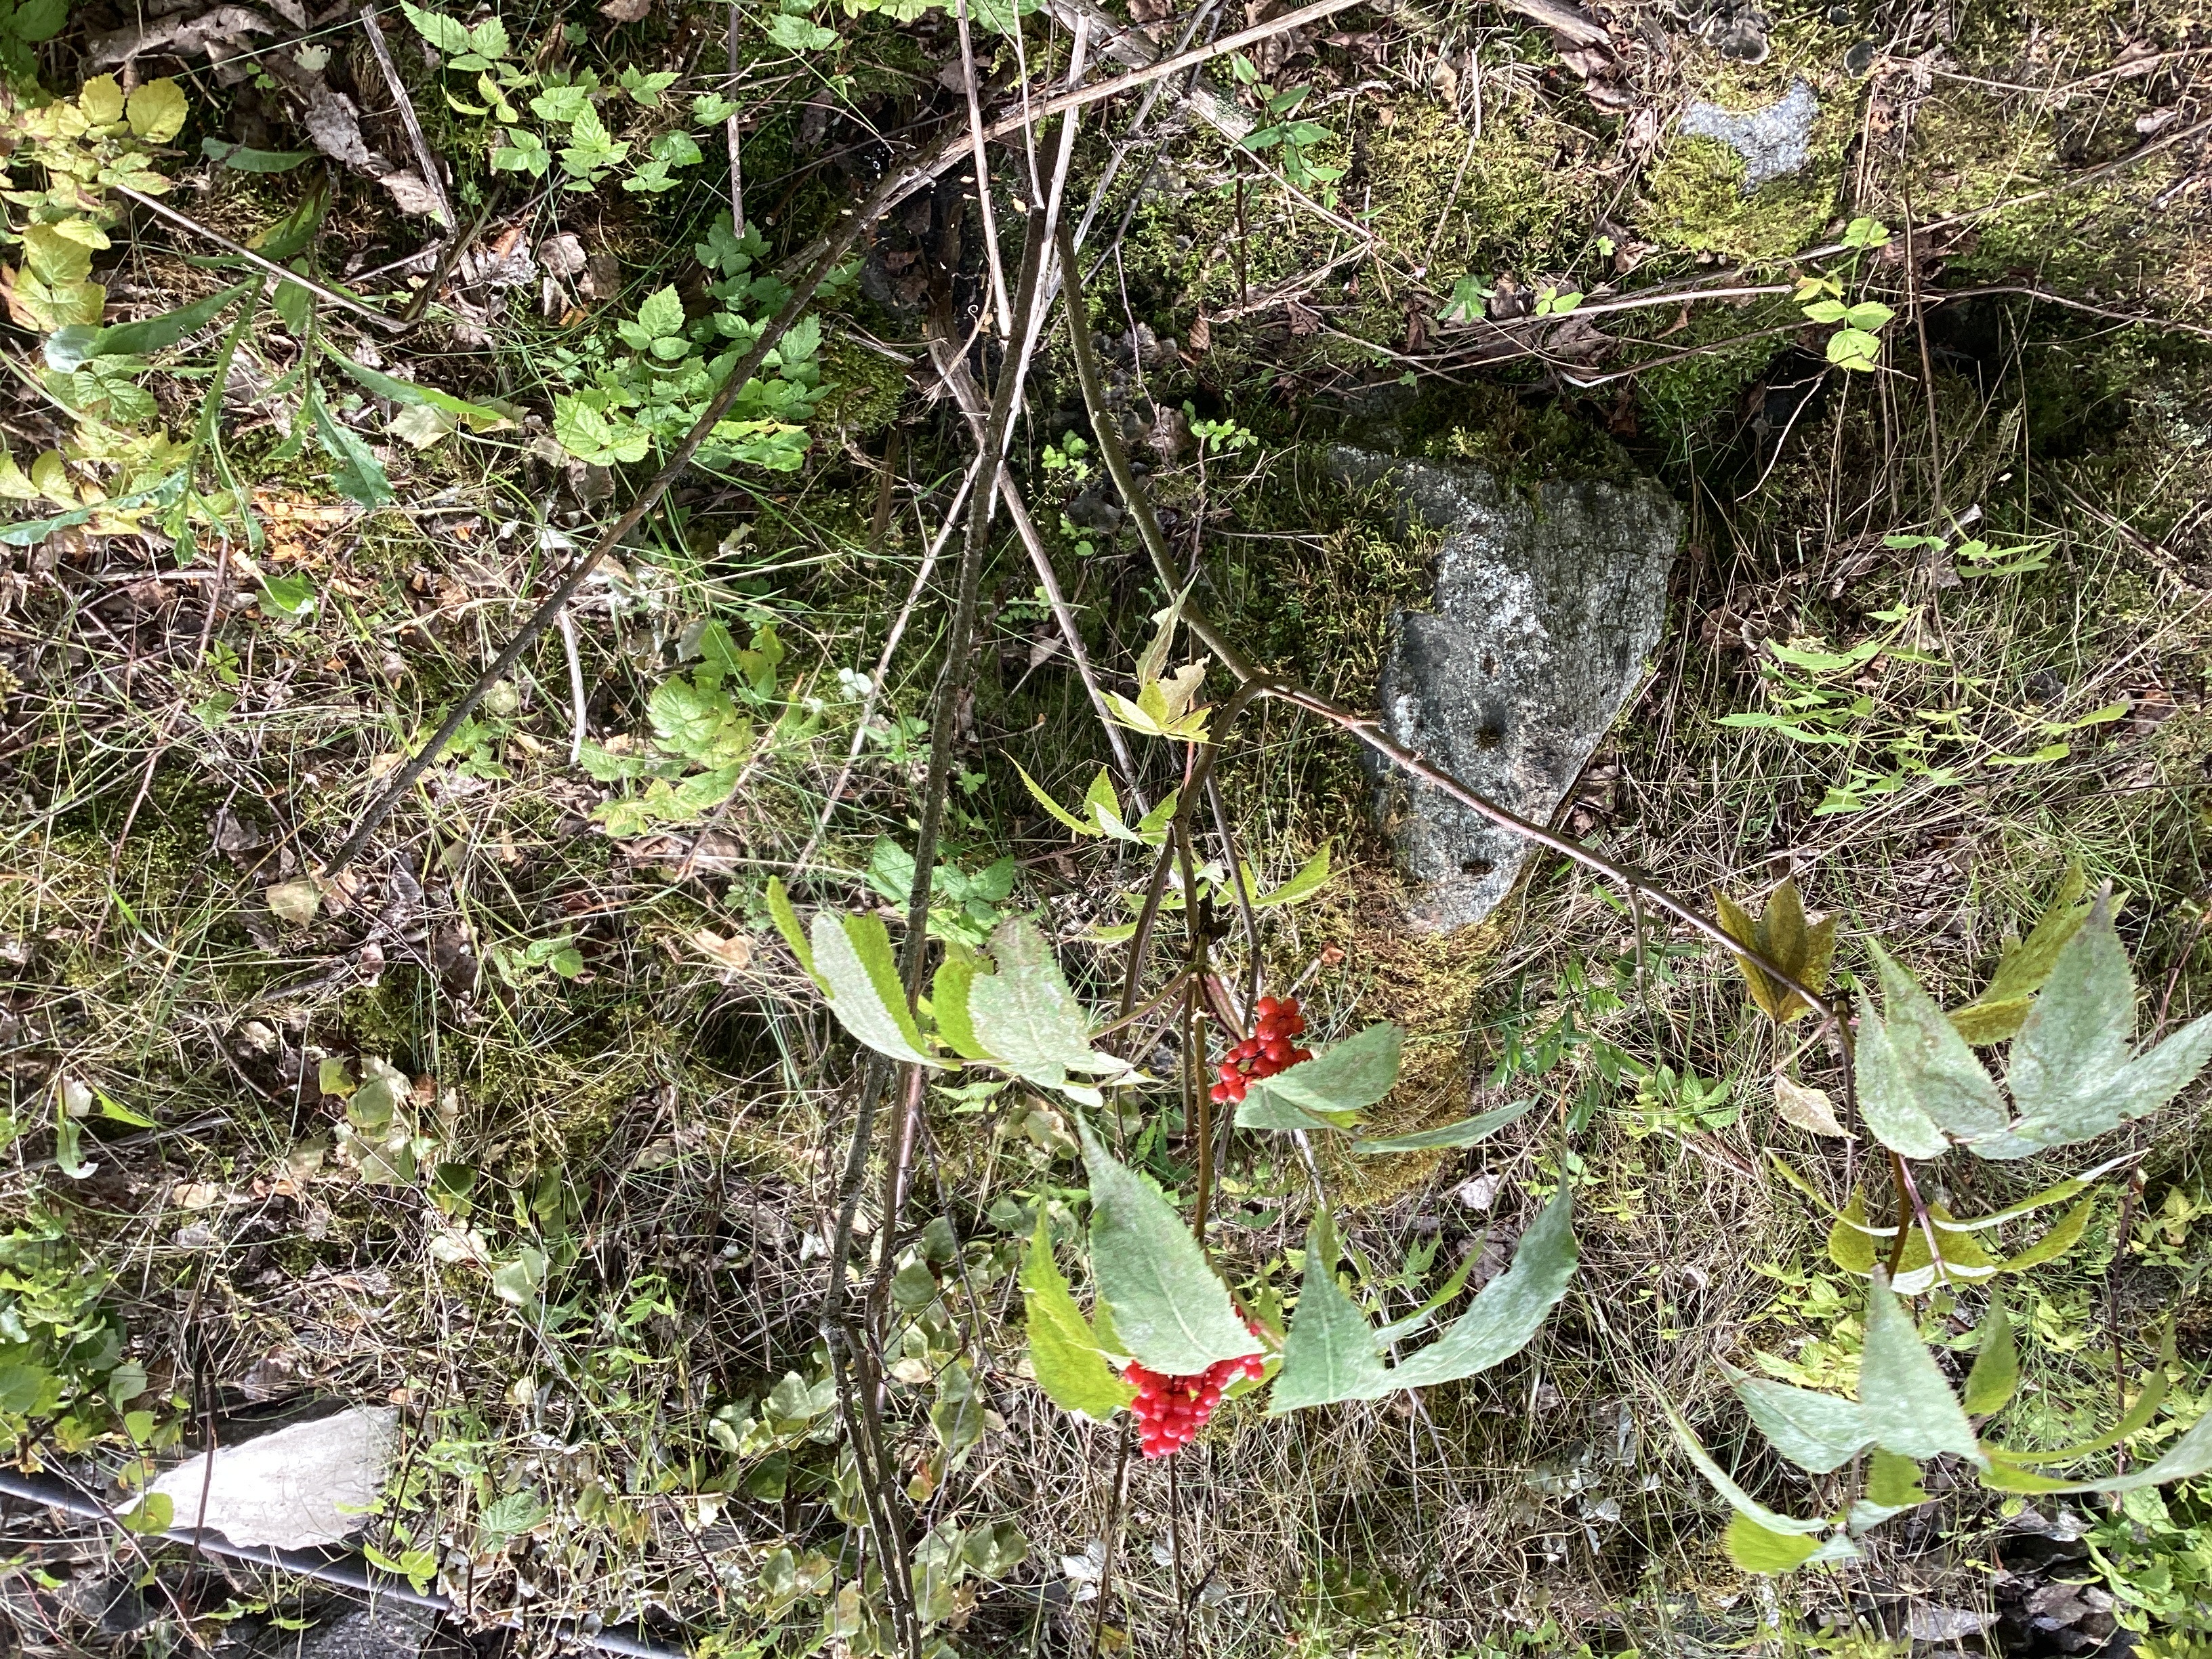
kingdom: Plantae
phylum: Tracheophyta
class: Magnoliopsida
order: Dipsacales
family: Viburnaceae
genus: Sambucus
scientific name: Sambucus racemosa
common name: rødhyll
